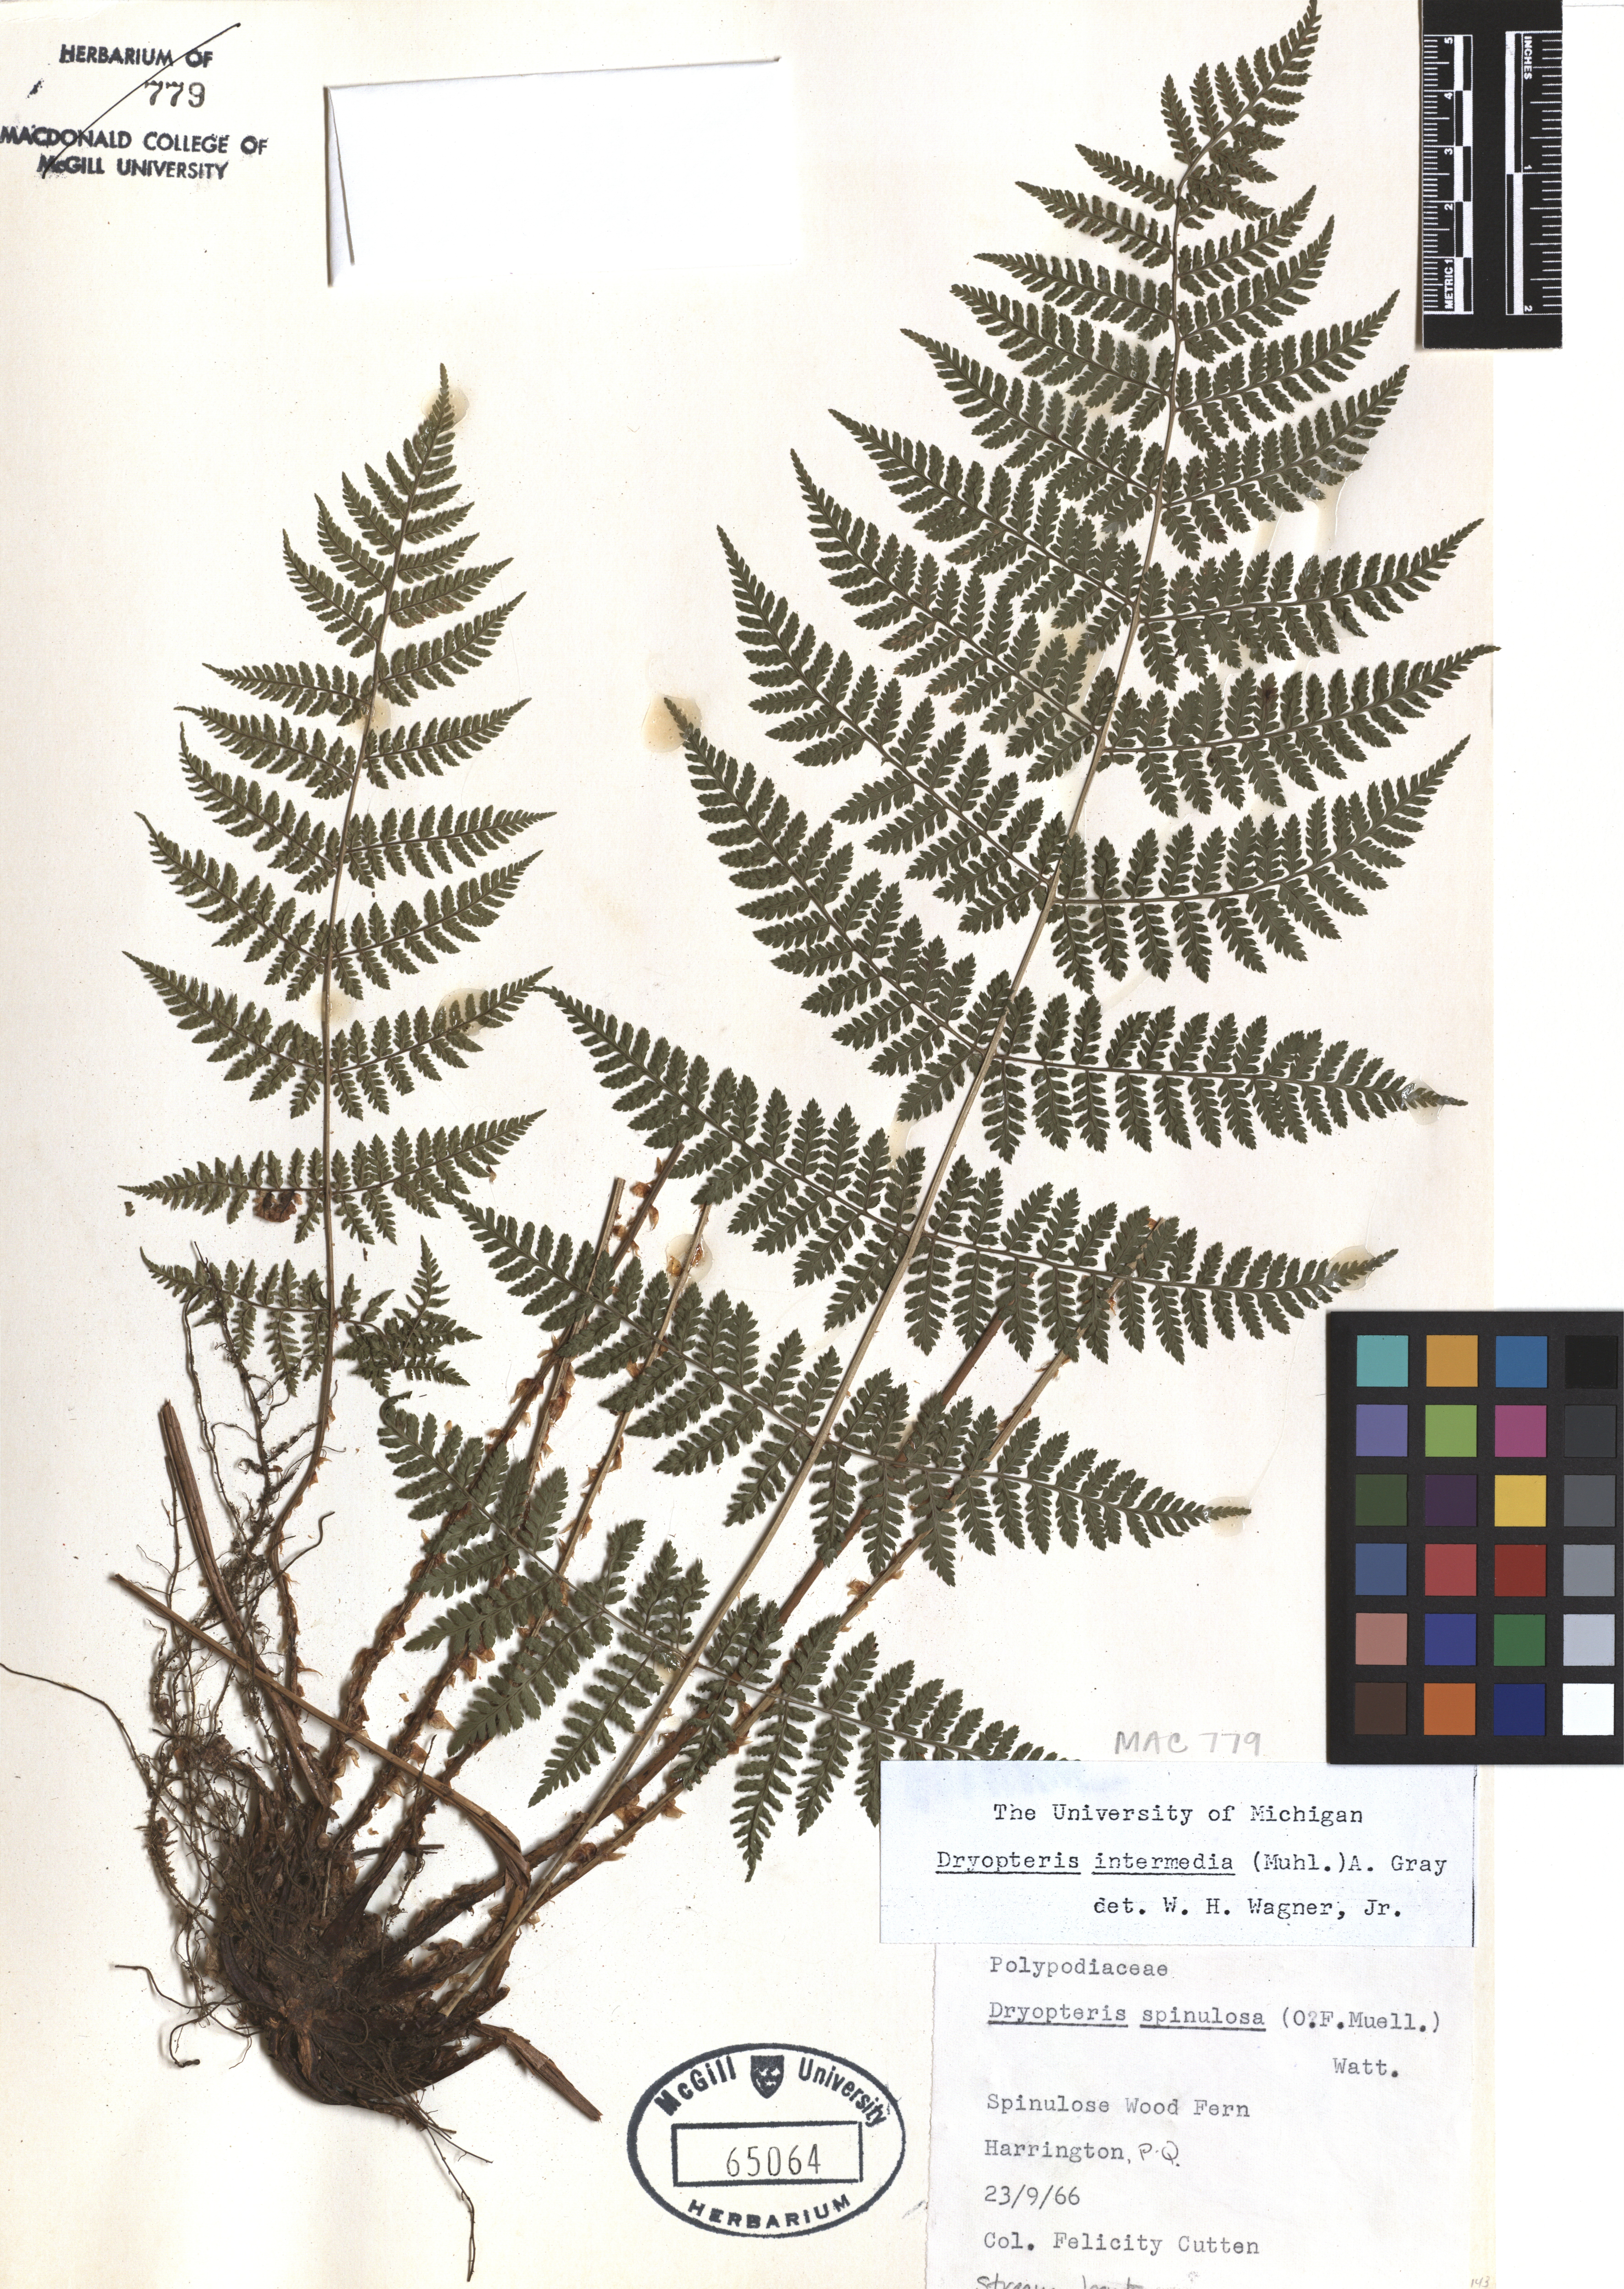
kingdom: Plantae
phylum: Tracheophyta
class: Polypodiopsida
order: Polypodiales
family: Dryopteridaceae
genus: Dryopteris
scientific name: Dryopteris intermedia
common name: Evergreen wood fern
